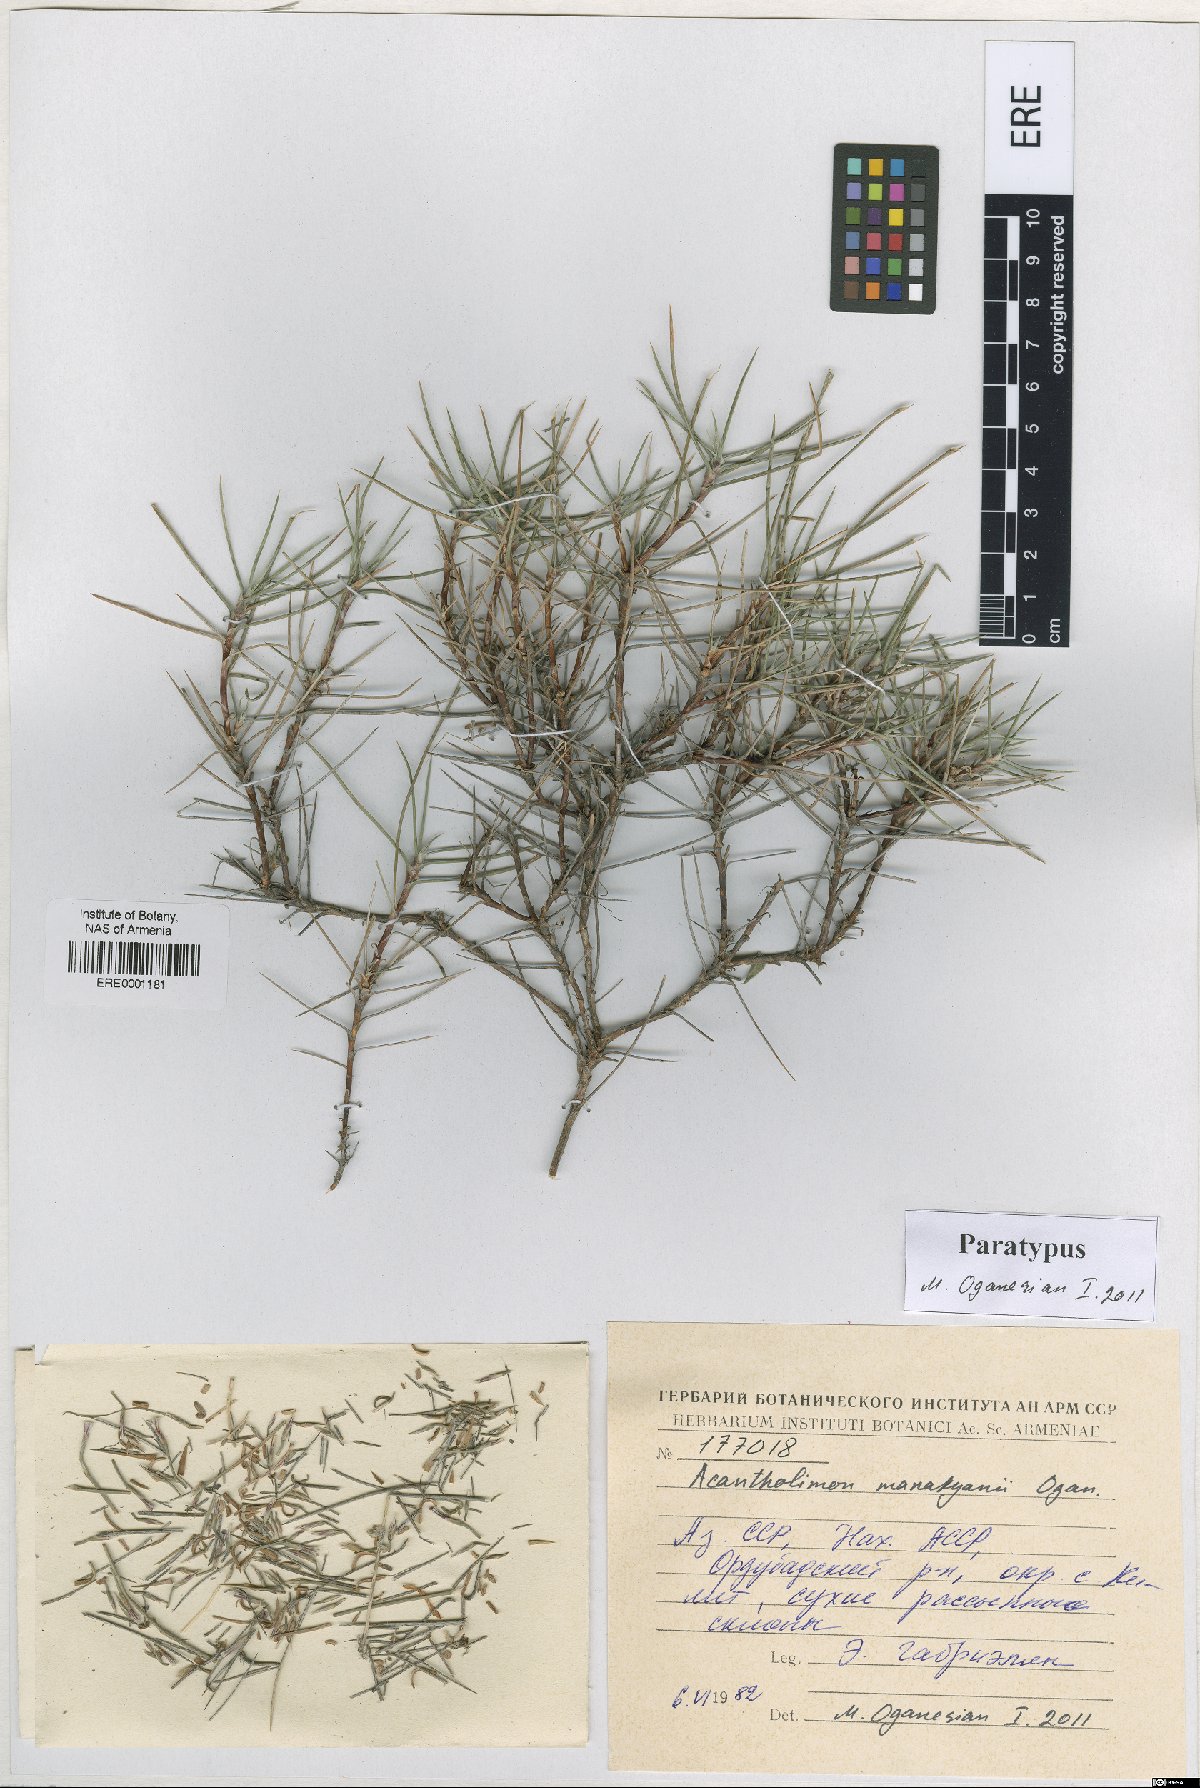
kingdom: Plantae
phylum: Tracheophyta
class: Magnoliopsida
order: Caryophyllales
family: Plumbaginaceae
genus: Acantholimon
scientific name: Acantholimon manakyanii
